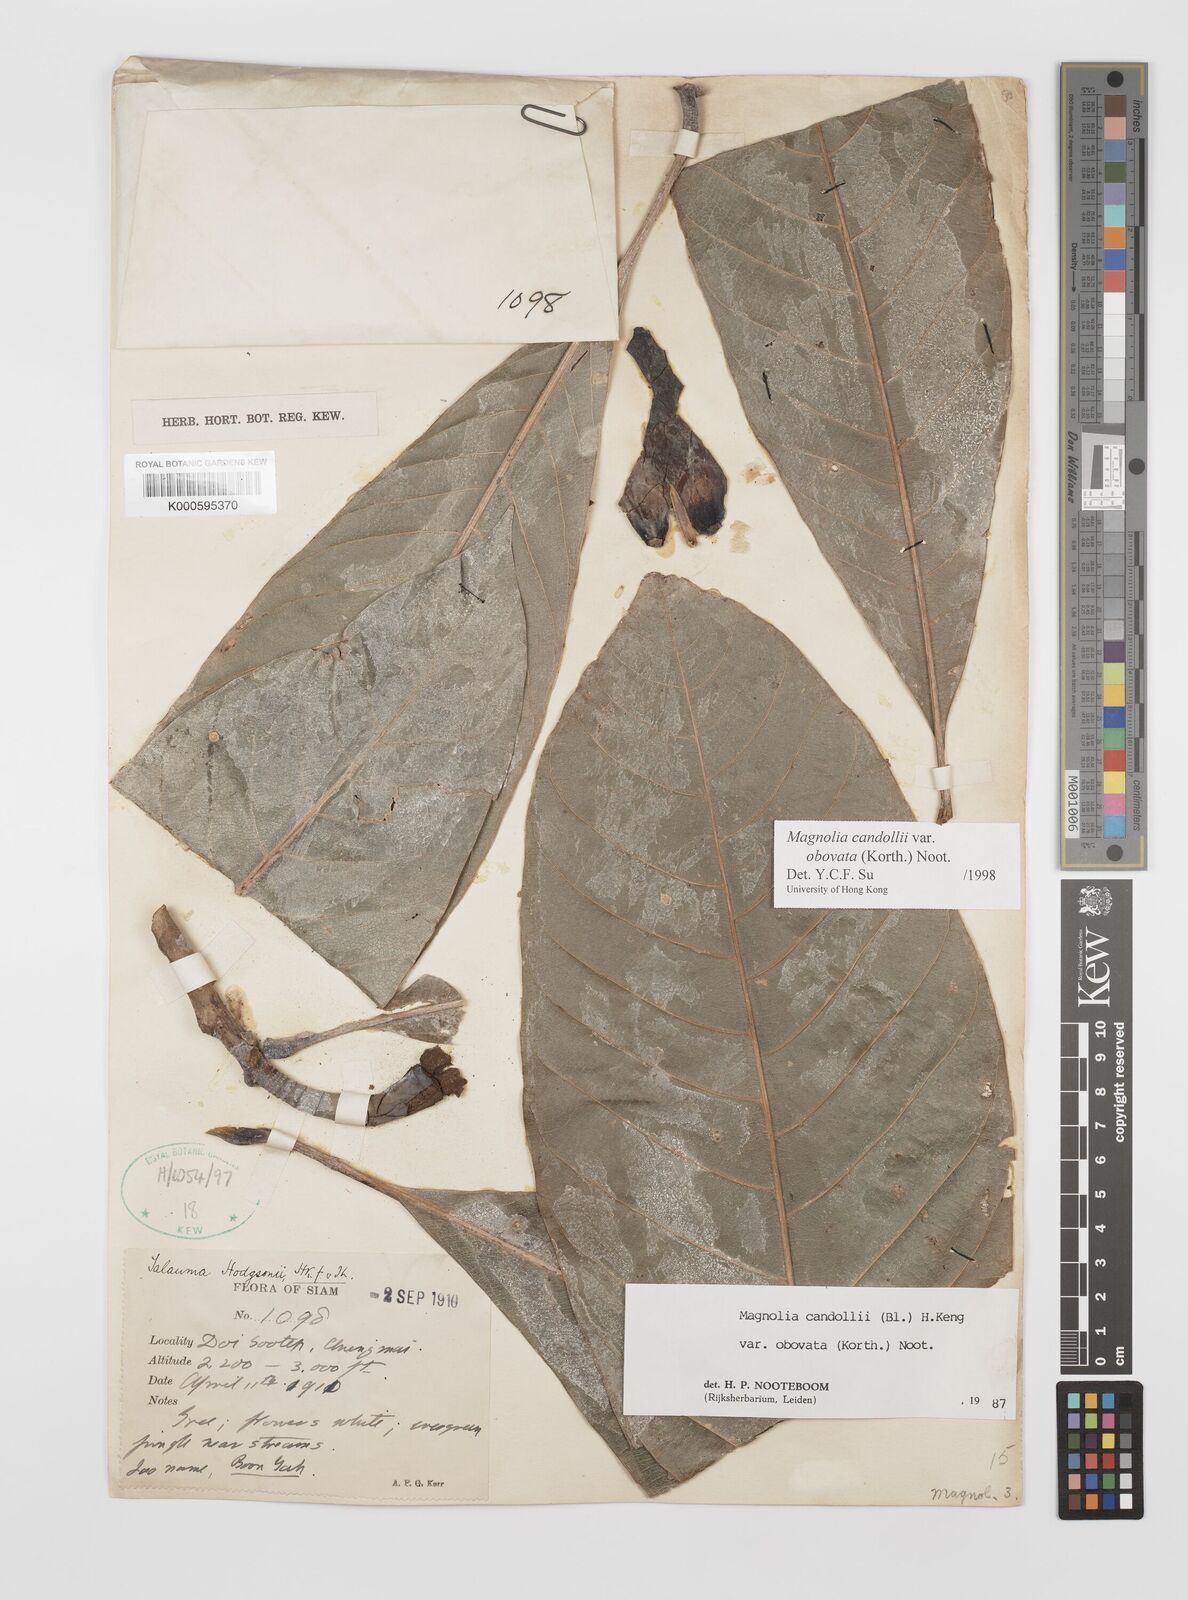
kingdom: Plantae
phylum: Tracheophyta
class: Magnoliopsida
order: Magnoliales
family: Magnoliaceae
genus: Magnolia
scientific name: Magnolia betongensis
